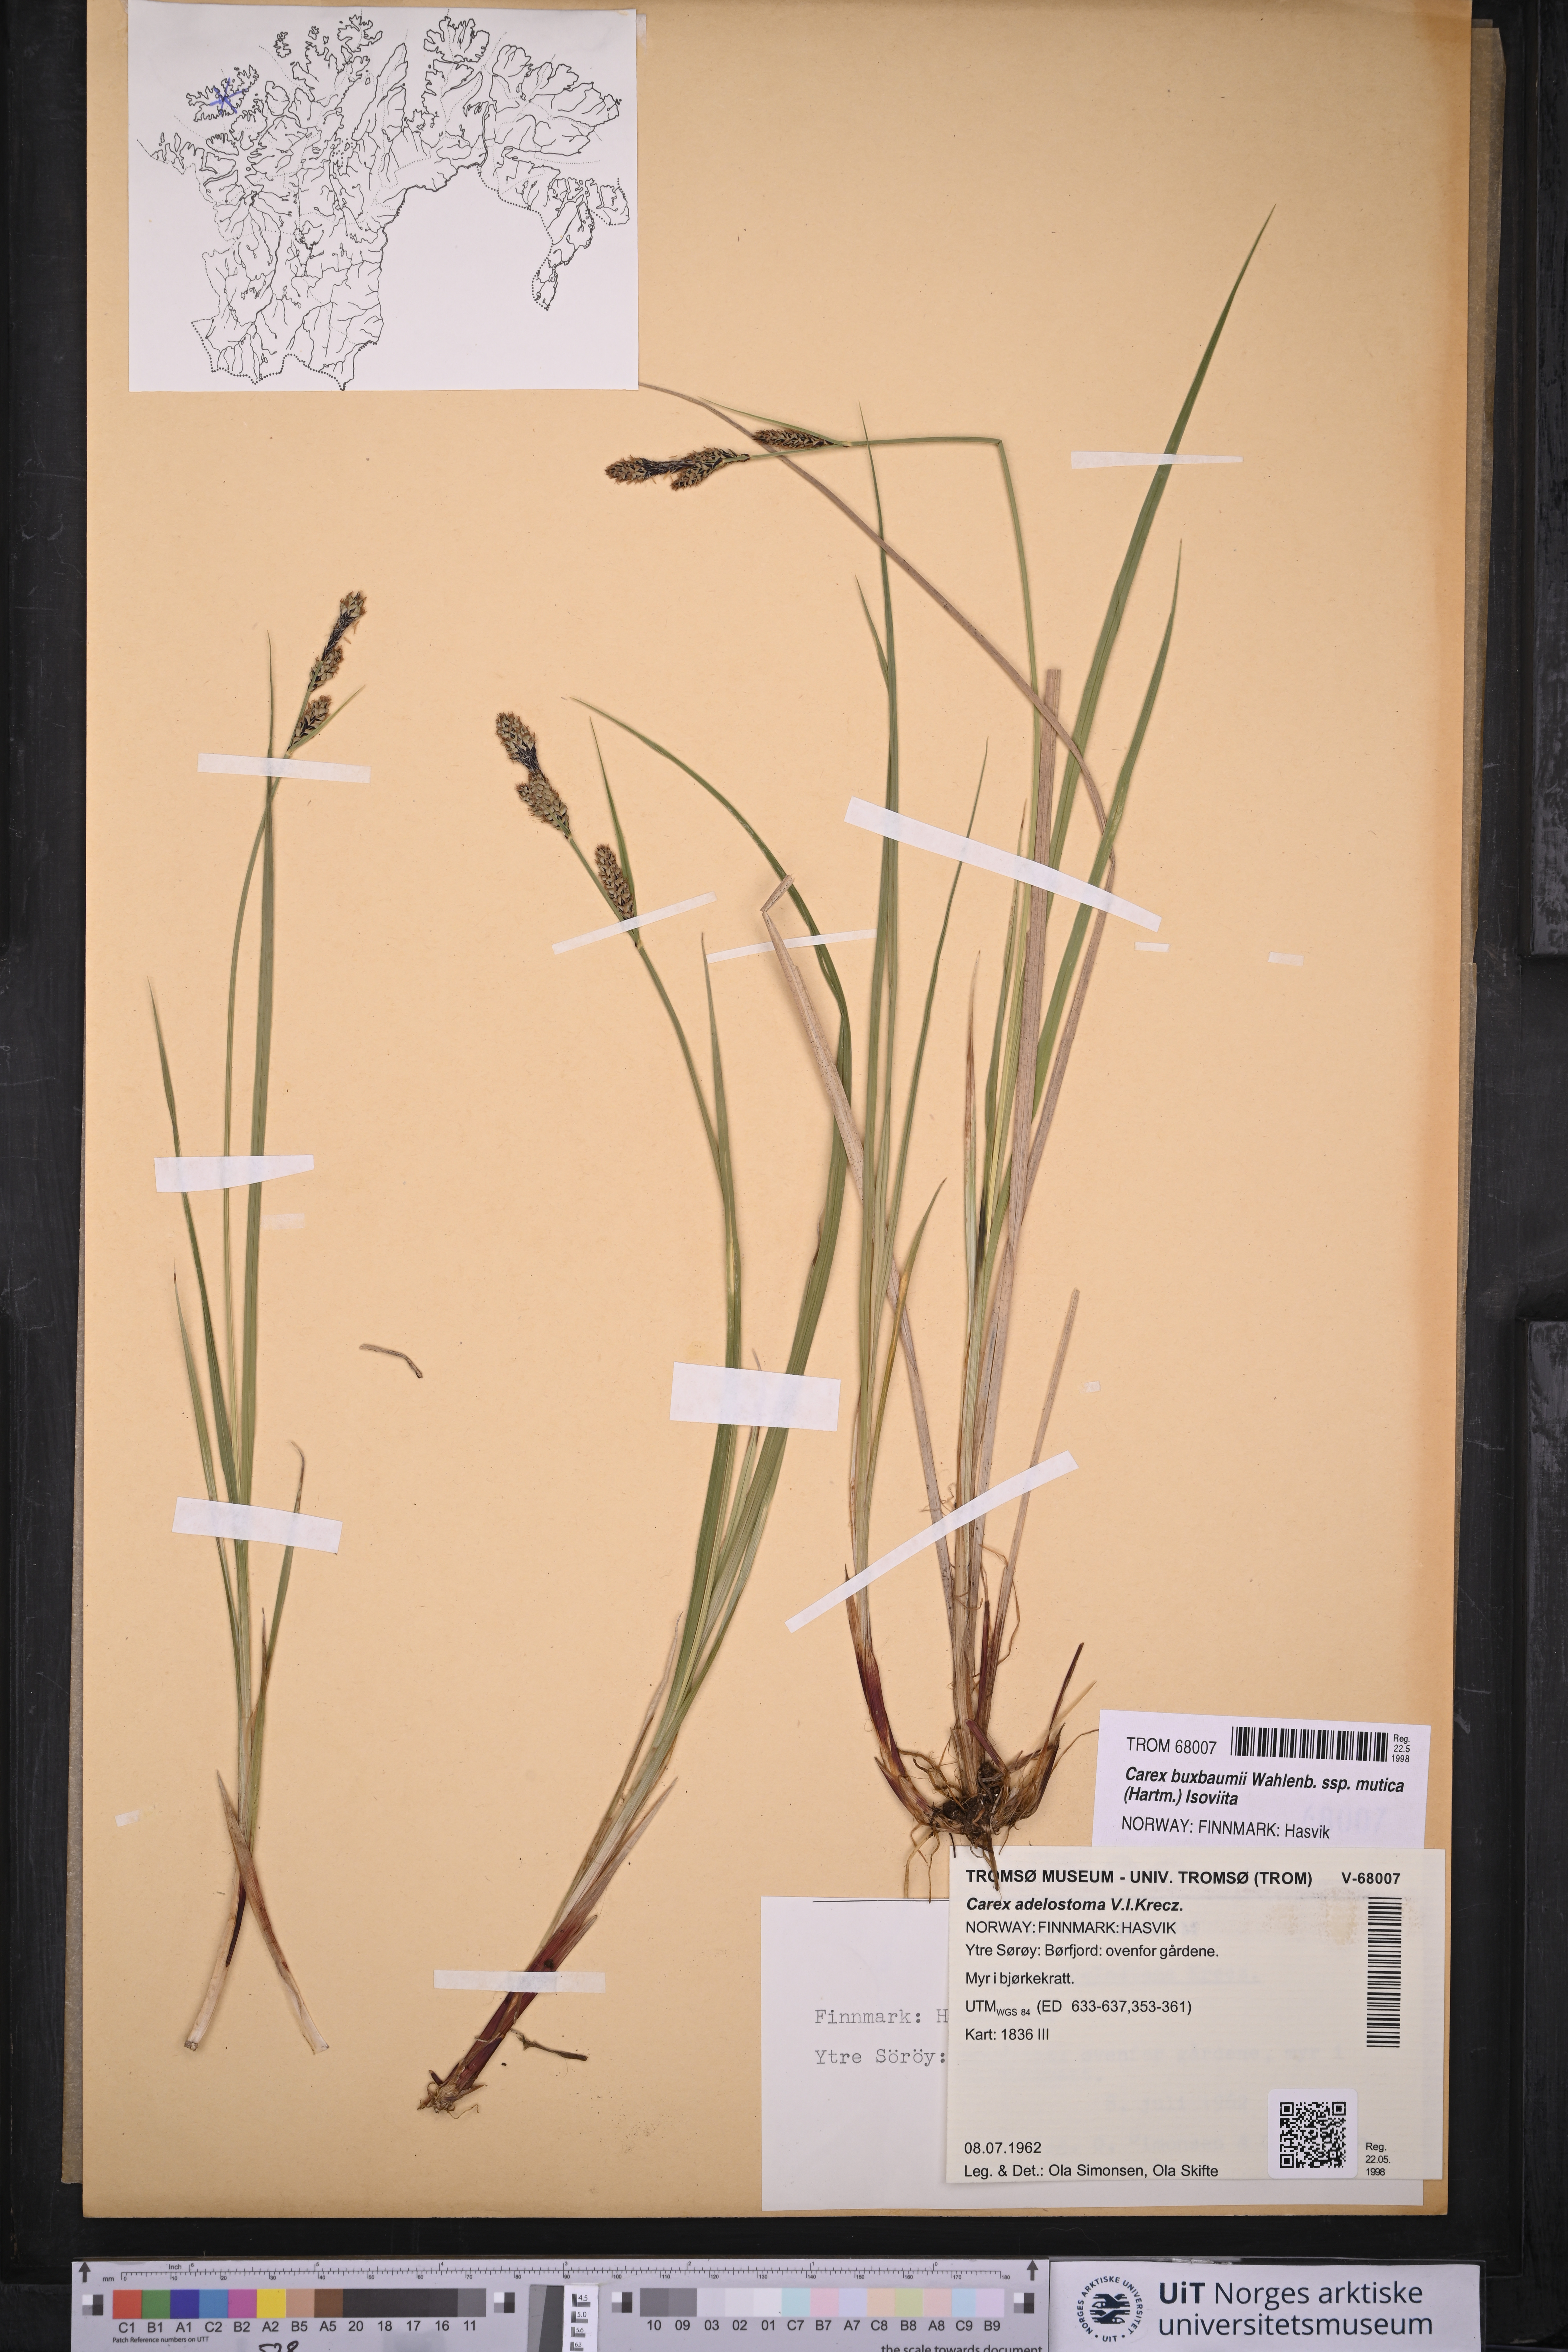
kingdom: Plantae
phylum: Tracheophyta
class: Liliopsida
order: Poales
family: Cyperaceae
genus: Carex
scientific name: Carex adelostoma
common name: Circumpolar sedge
